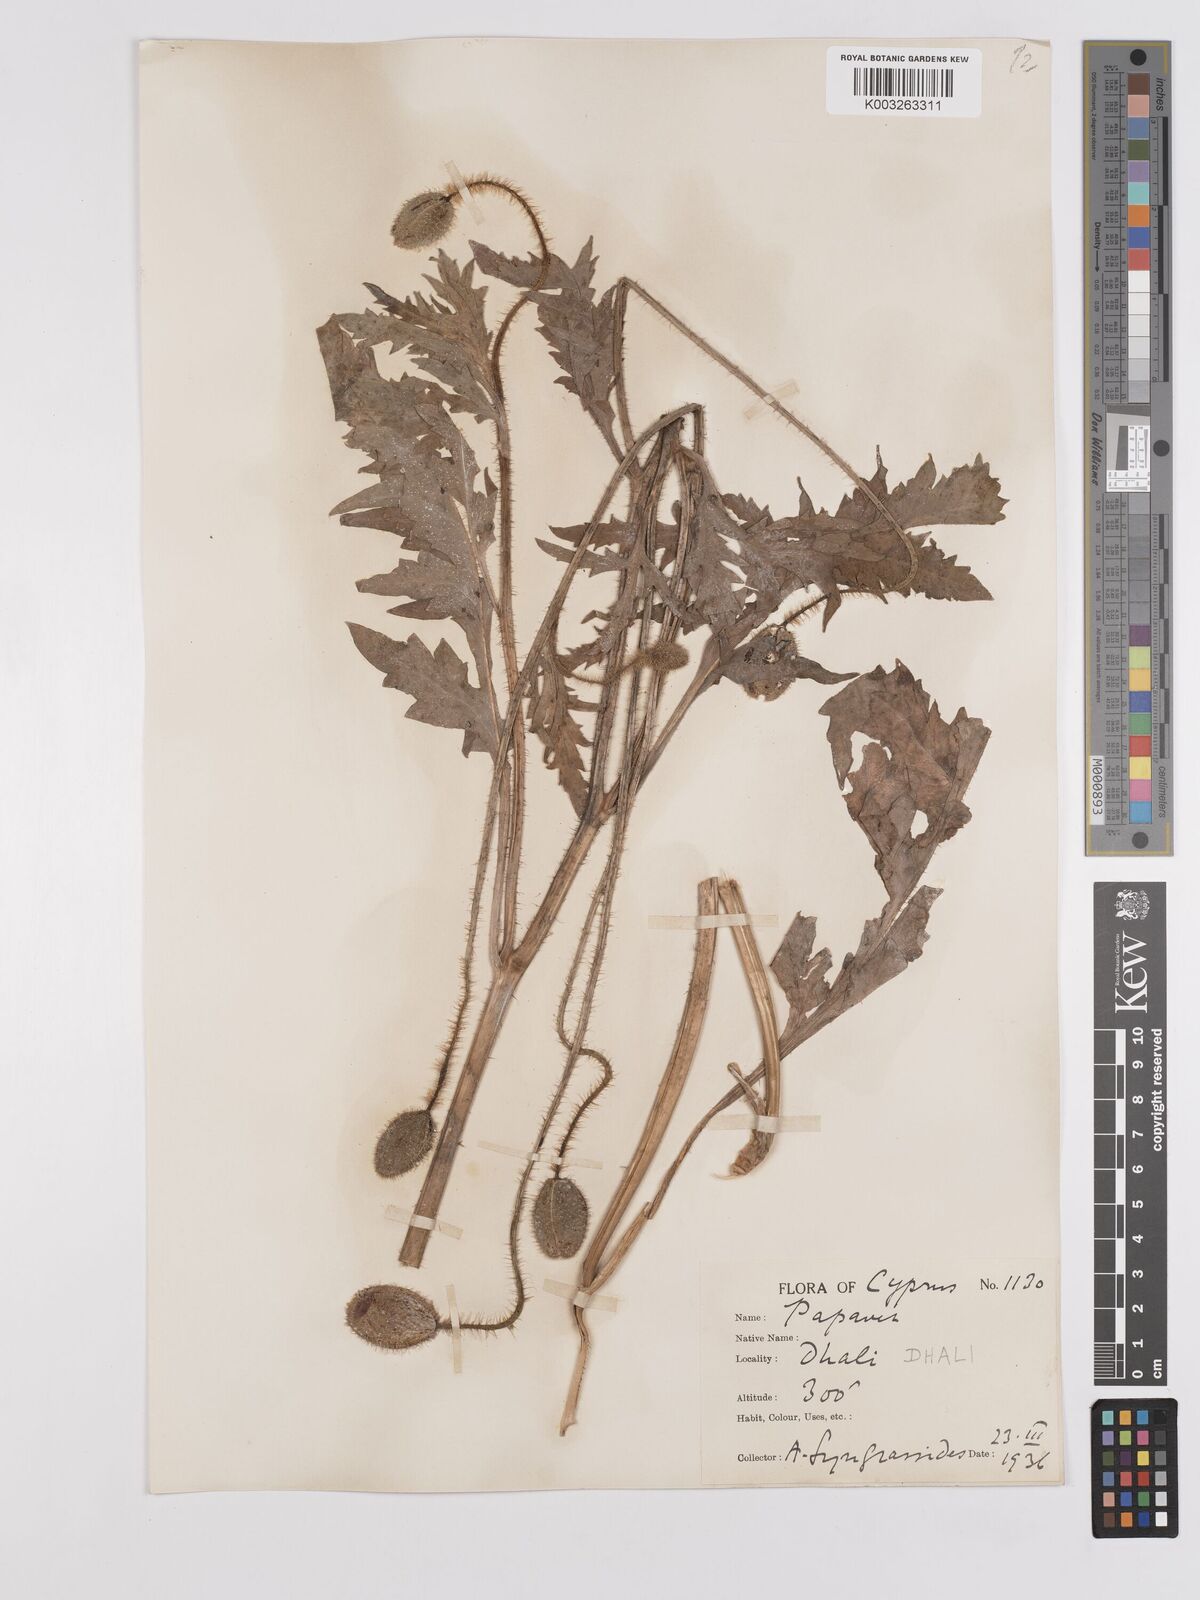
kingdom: Plantae
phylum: Tracheophyta
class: Magnoliopsida
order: Ranunculales
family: Papaveraceae
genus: Papaver
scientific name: Papaver rhoeas
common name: Corn poppy
